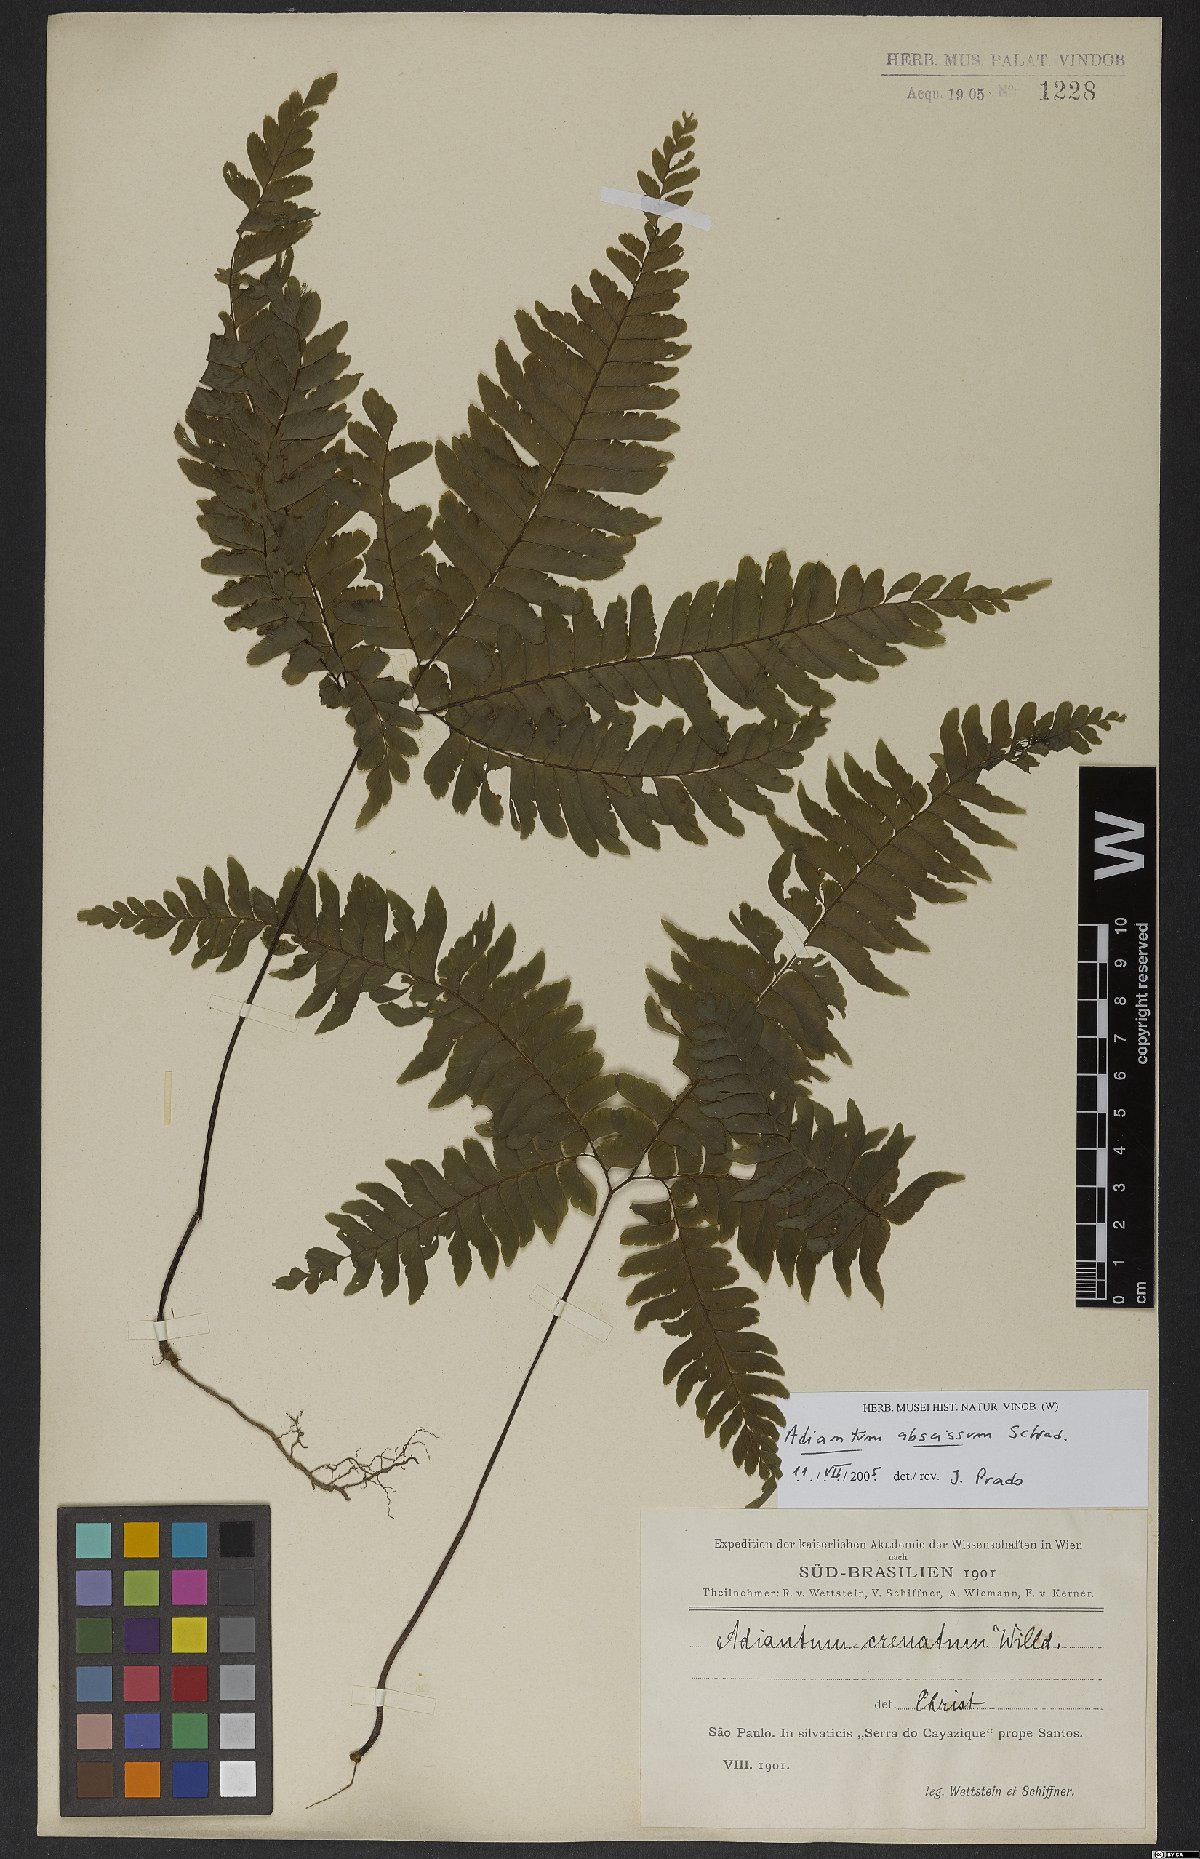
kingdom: Plantae
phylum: Tracheophyta
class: Polypodiopsida
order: Polypodiales
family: Pteridaceae
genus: Adiantum
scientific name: Adiantum abscissum
